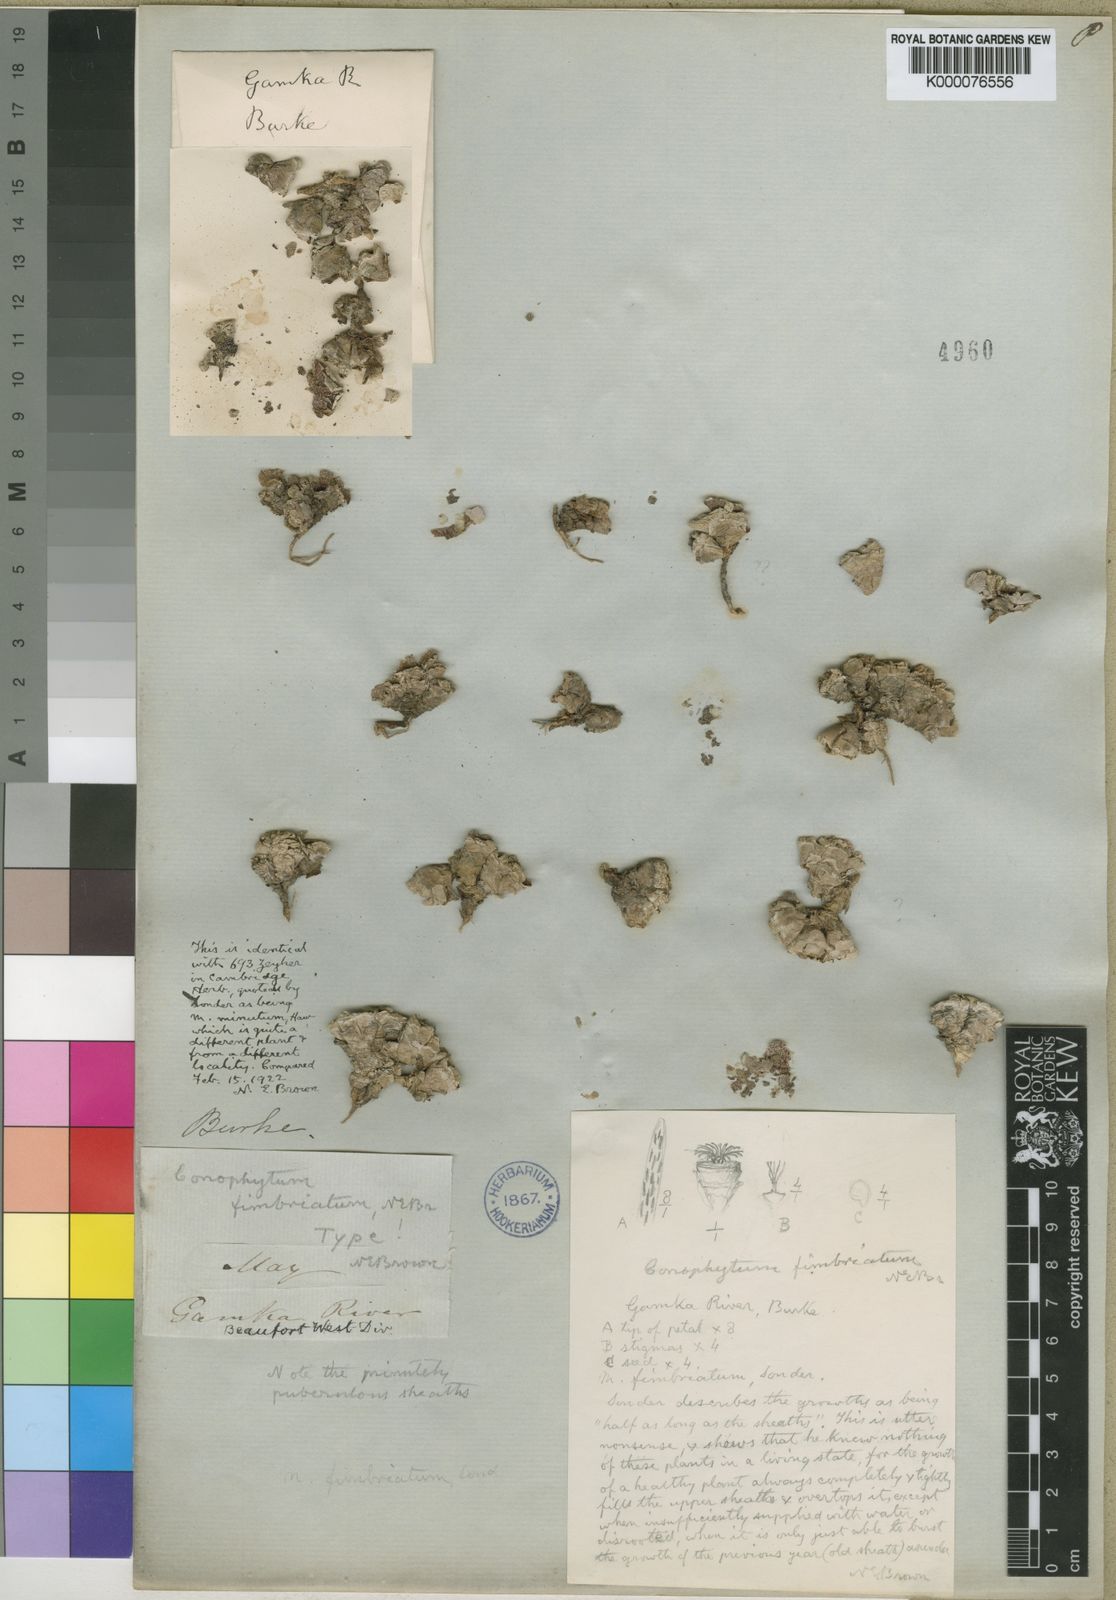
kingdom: Plantae
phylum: Tracheophyta
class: Magnoliopsida
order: Caryophyllales
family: Aizoaceae
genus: Conophytum
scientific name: Conophytum truncatum
